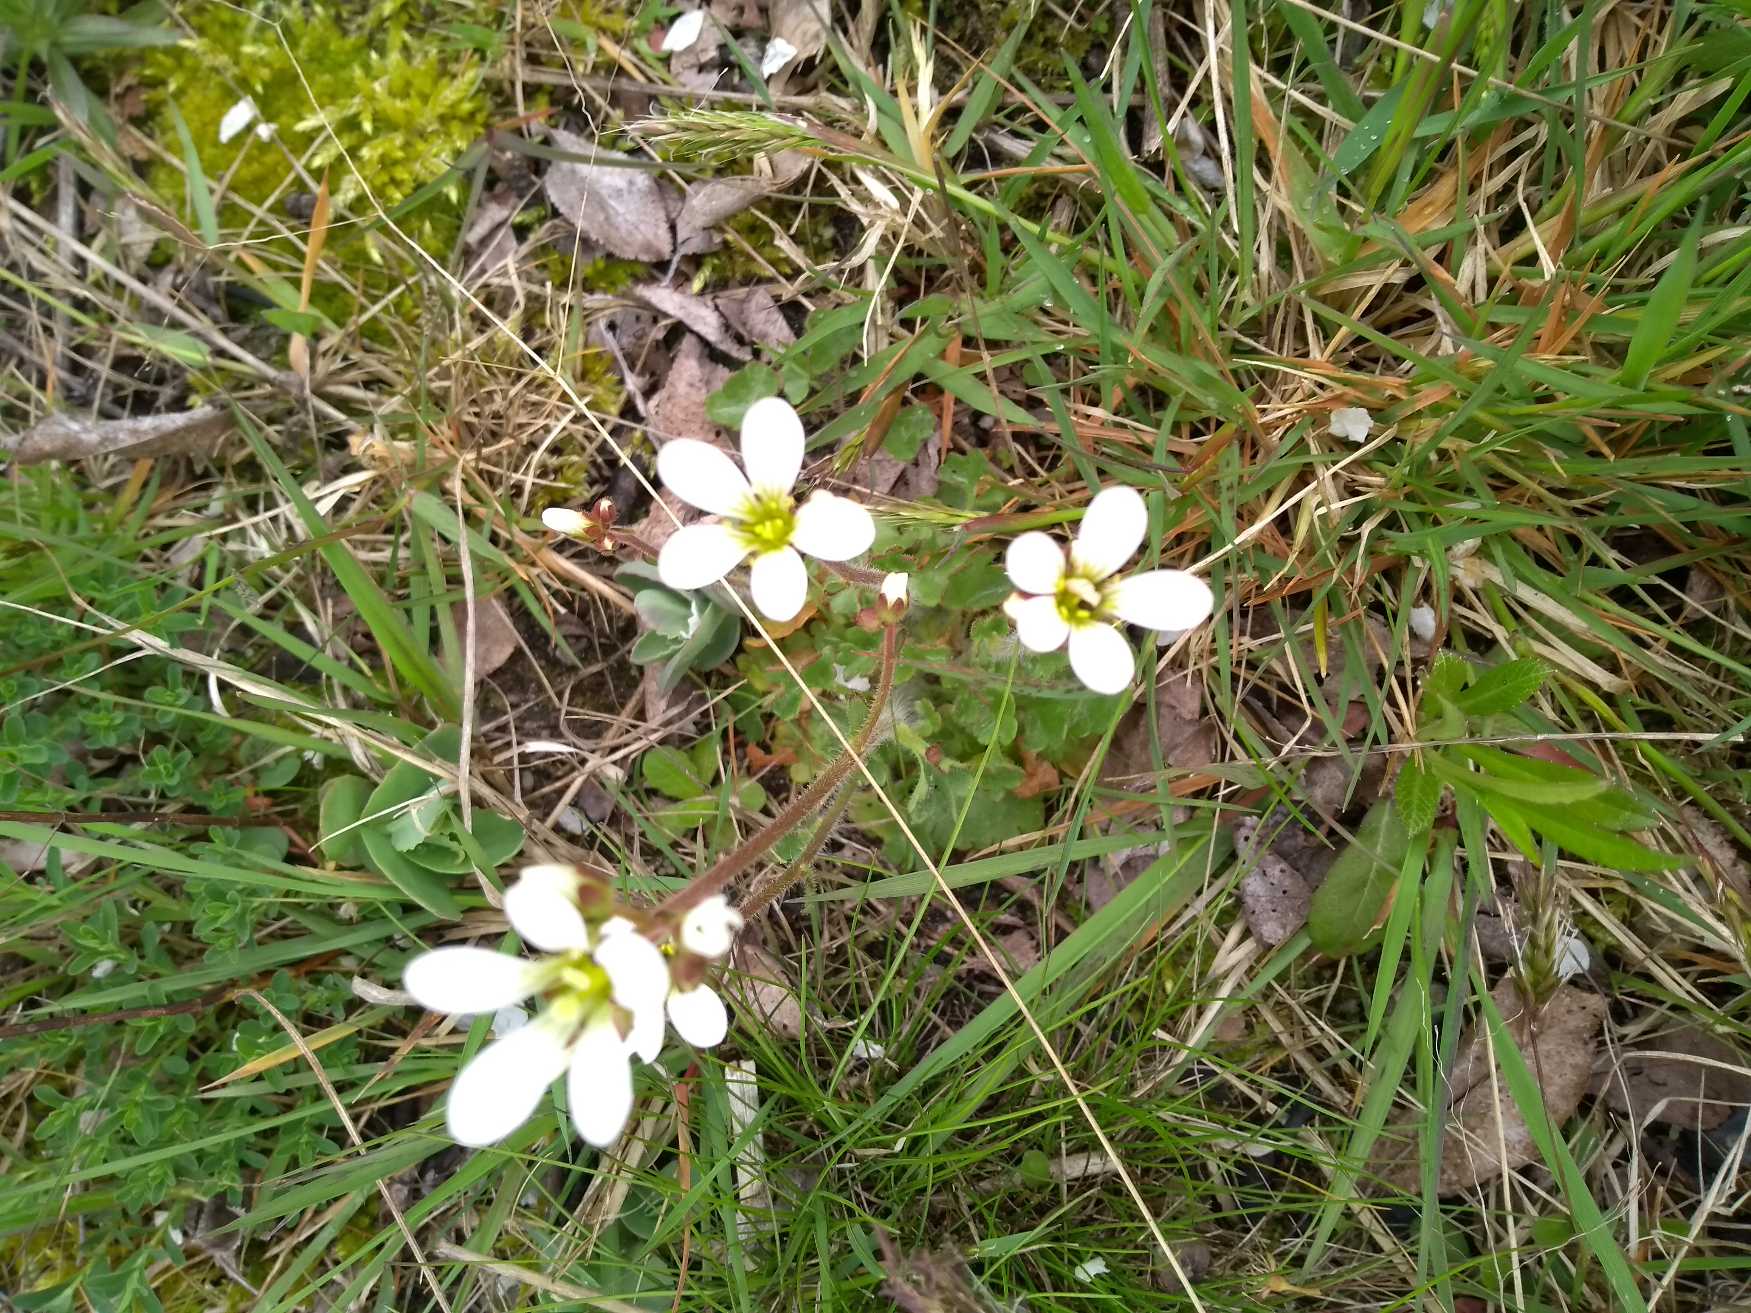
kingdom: Plantae
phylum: Tracheophyta
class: Magnoliopsida
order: Saxifragales
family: Saxifragaceae
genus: Saxifraga
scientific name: Saxifraga granulata
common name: Kornet stenbræk
